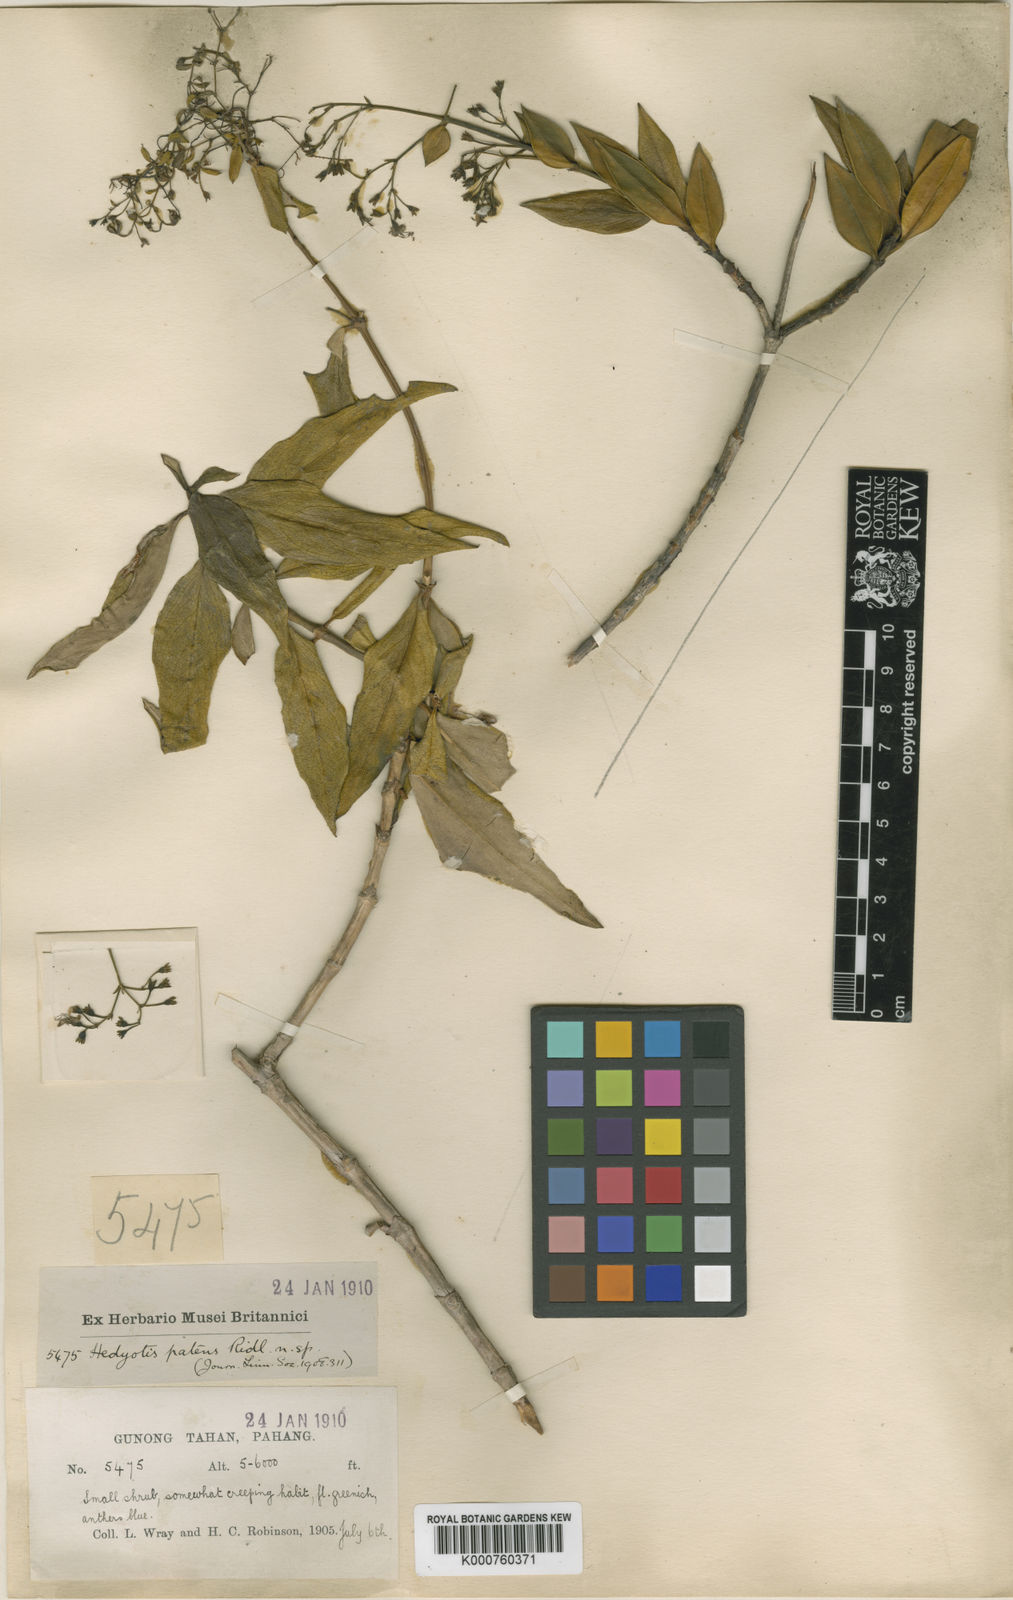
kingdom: Plantae
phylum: Tracheophyta
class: Magnoliopsida
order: Gentianales
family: Rubiaceae
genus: Hedyotis
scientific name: Hedyotis patens
